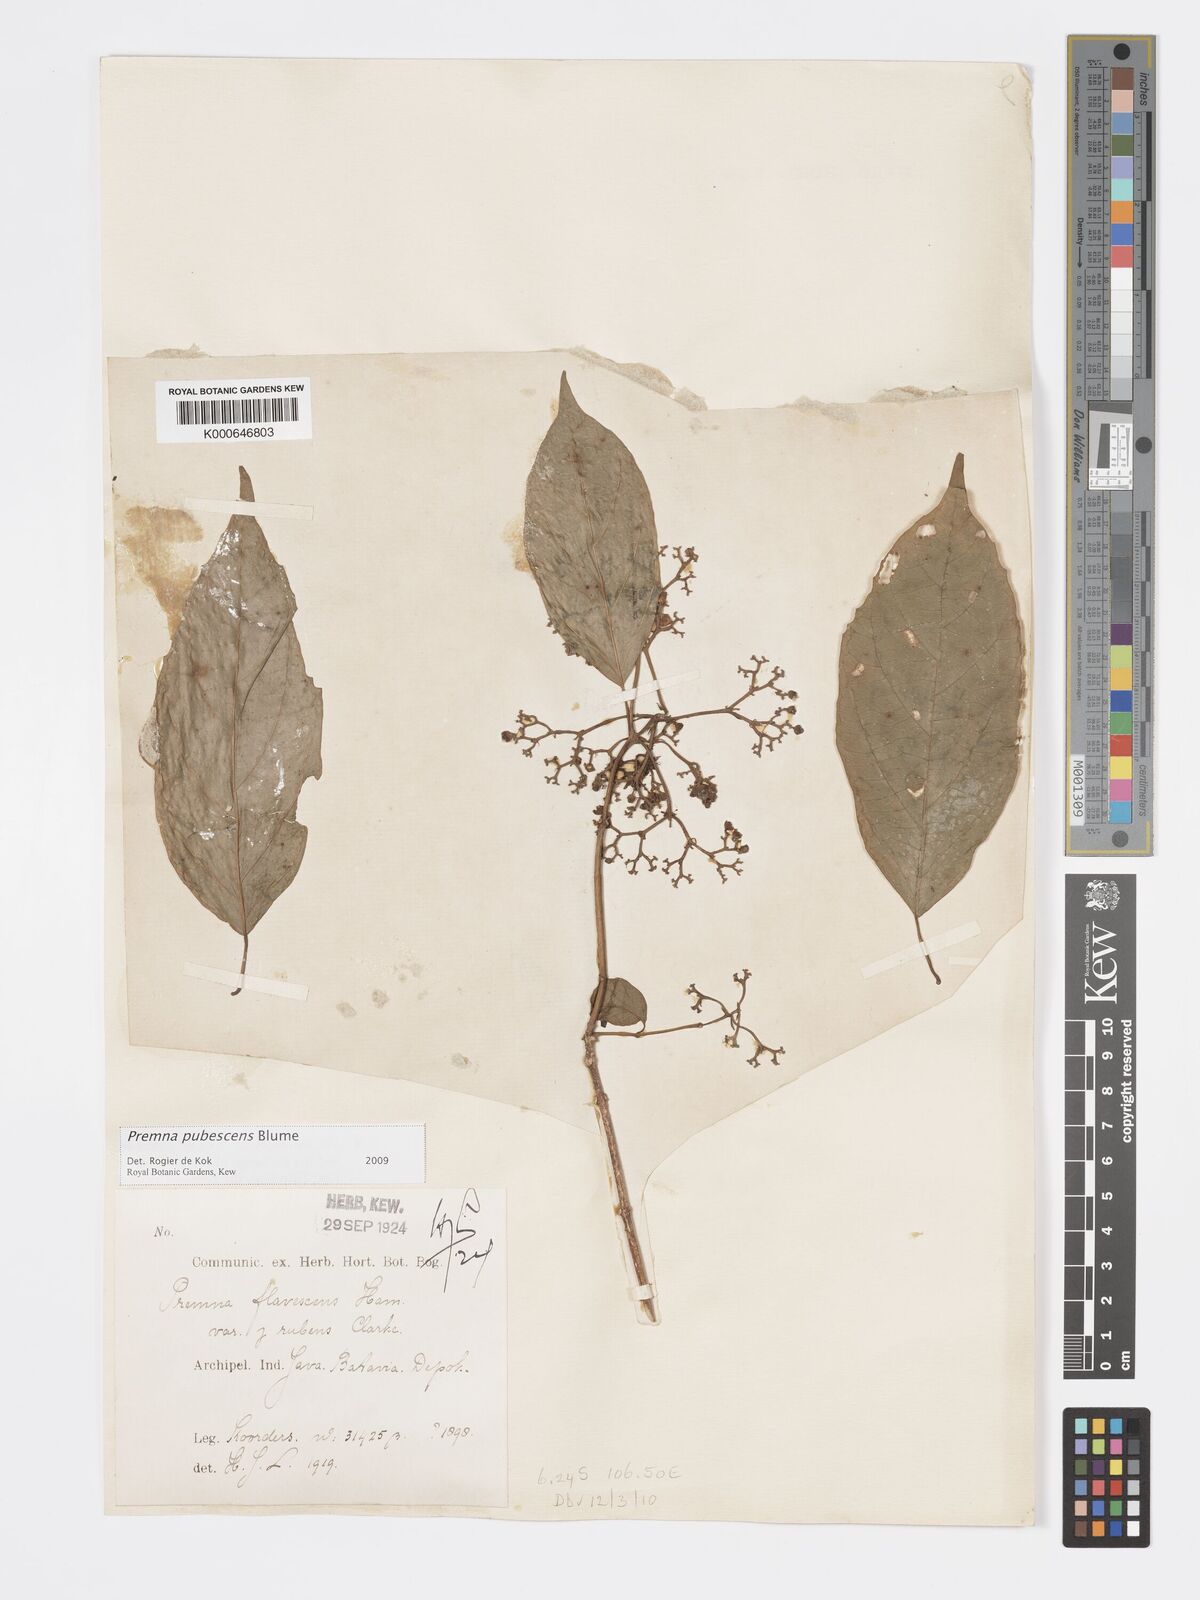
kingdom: Plantae
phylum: Tracheophyta
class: Magnoliopsida
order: Lamiales
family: Lamiaceae
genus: Premna
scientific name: Premna
